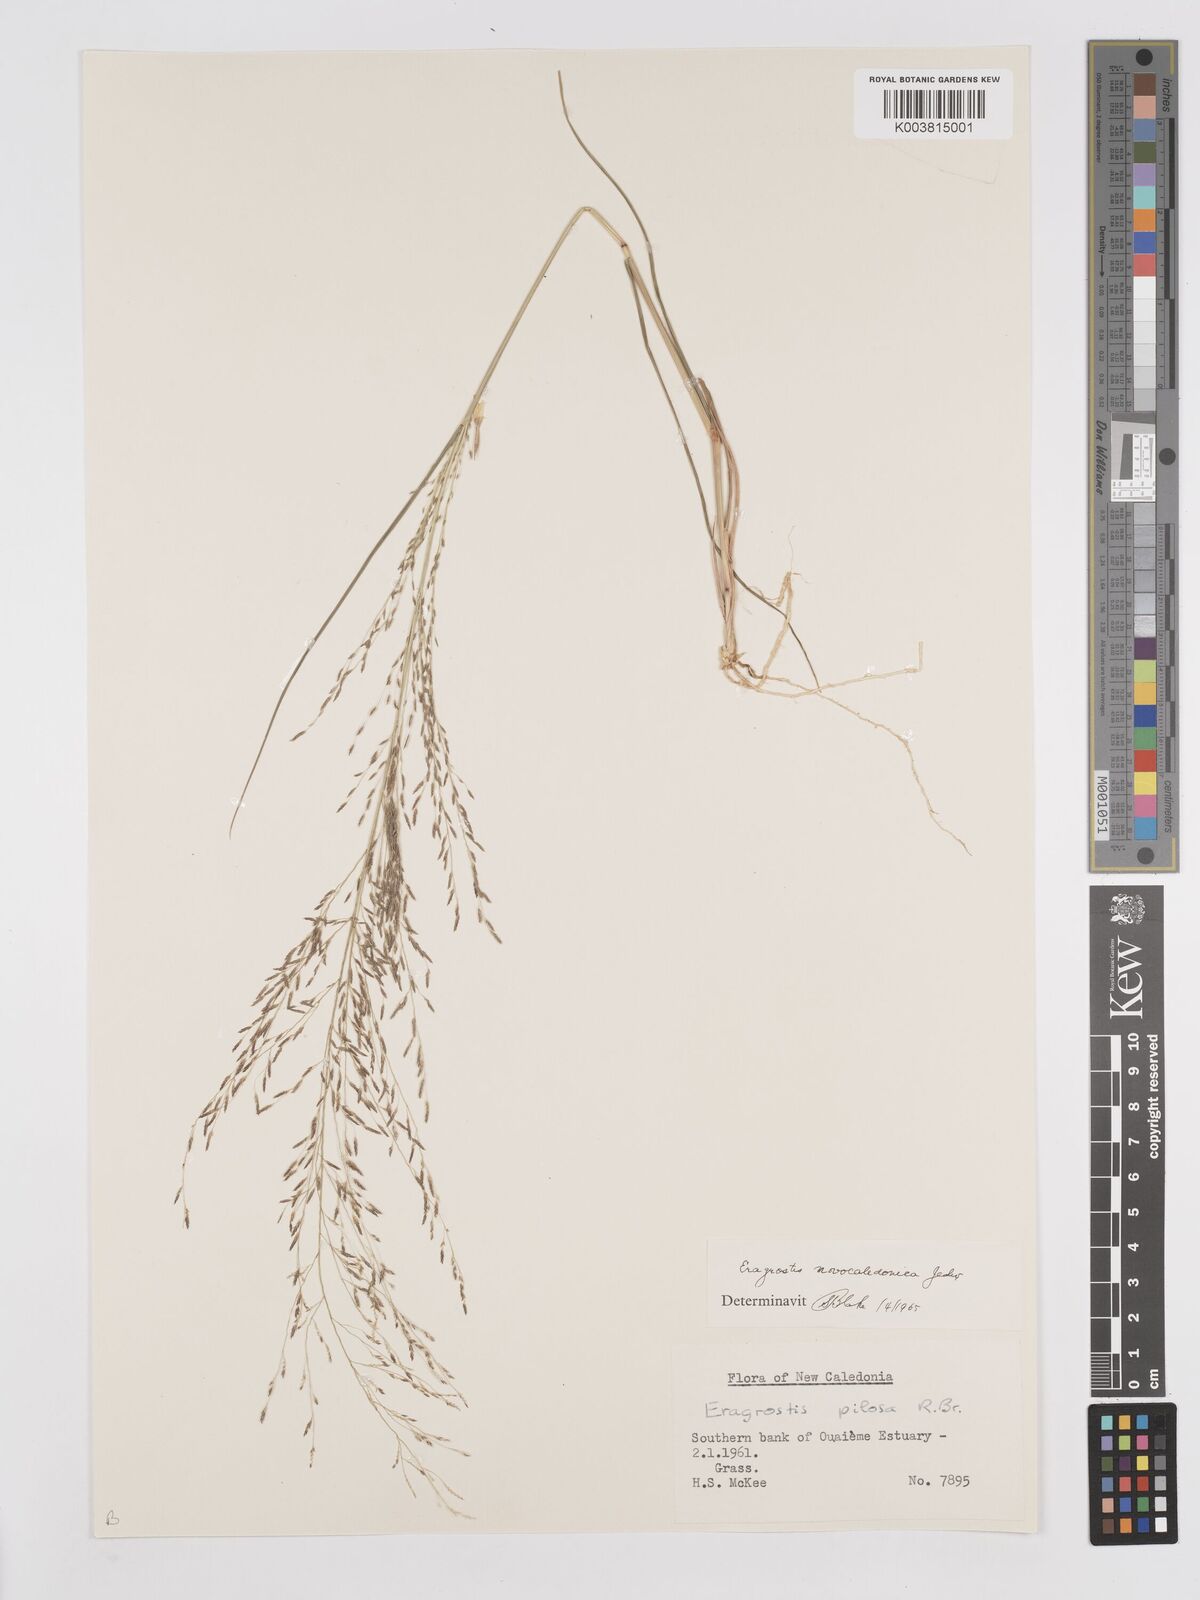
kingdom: Plantae
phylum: Tracheophyta
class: Liliopsida
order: Poales
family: Poaceae
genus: Eragrostis
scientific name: Eragrostis parviflora
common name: Weeping love-grass
